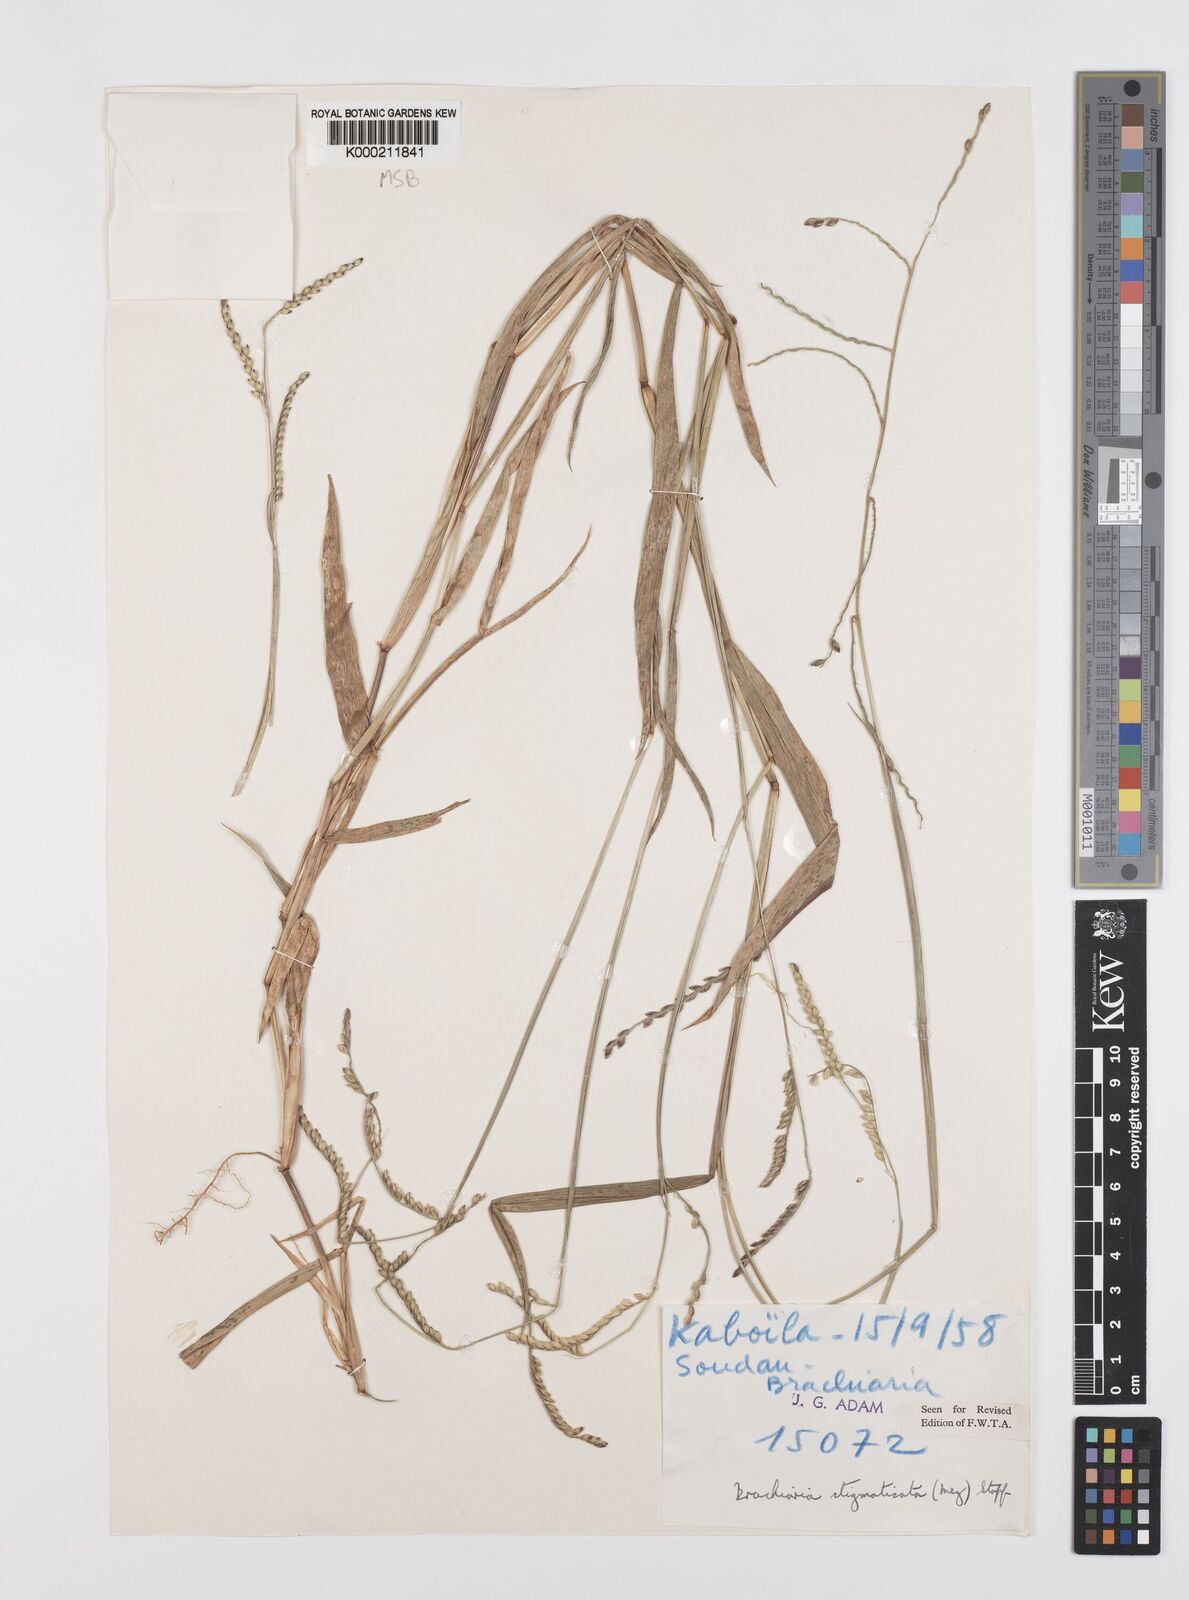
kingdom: Plantae
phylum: Tracheophyta
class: Liliopsida
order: Poales
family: Poaceae
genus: Urochloa
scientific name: Urochloa stigmatisata
